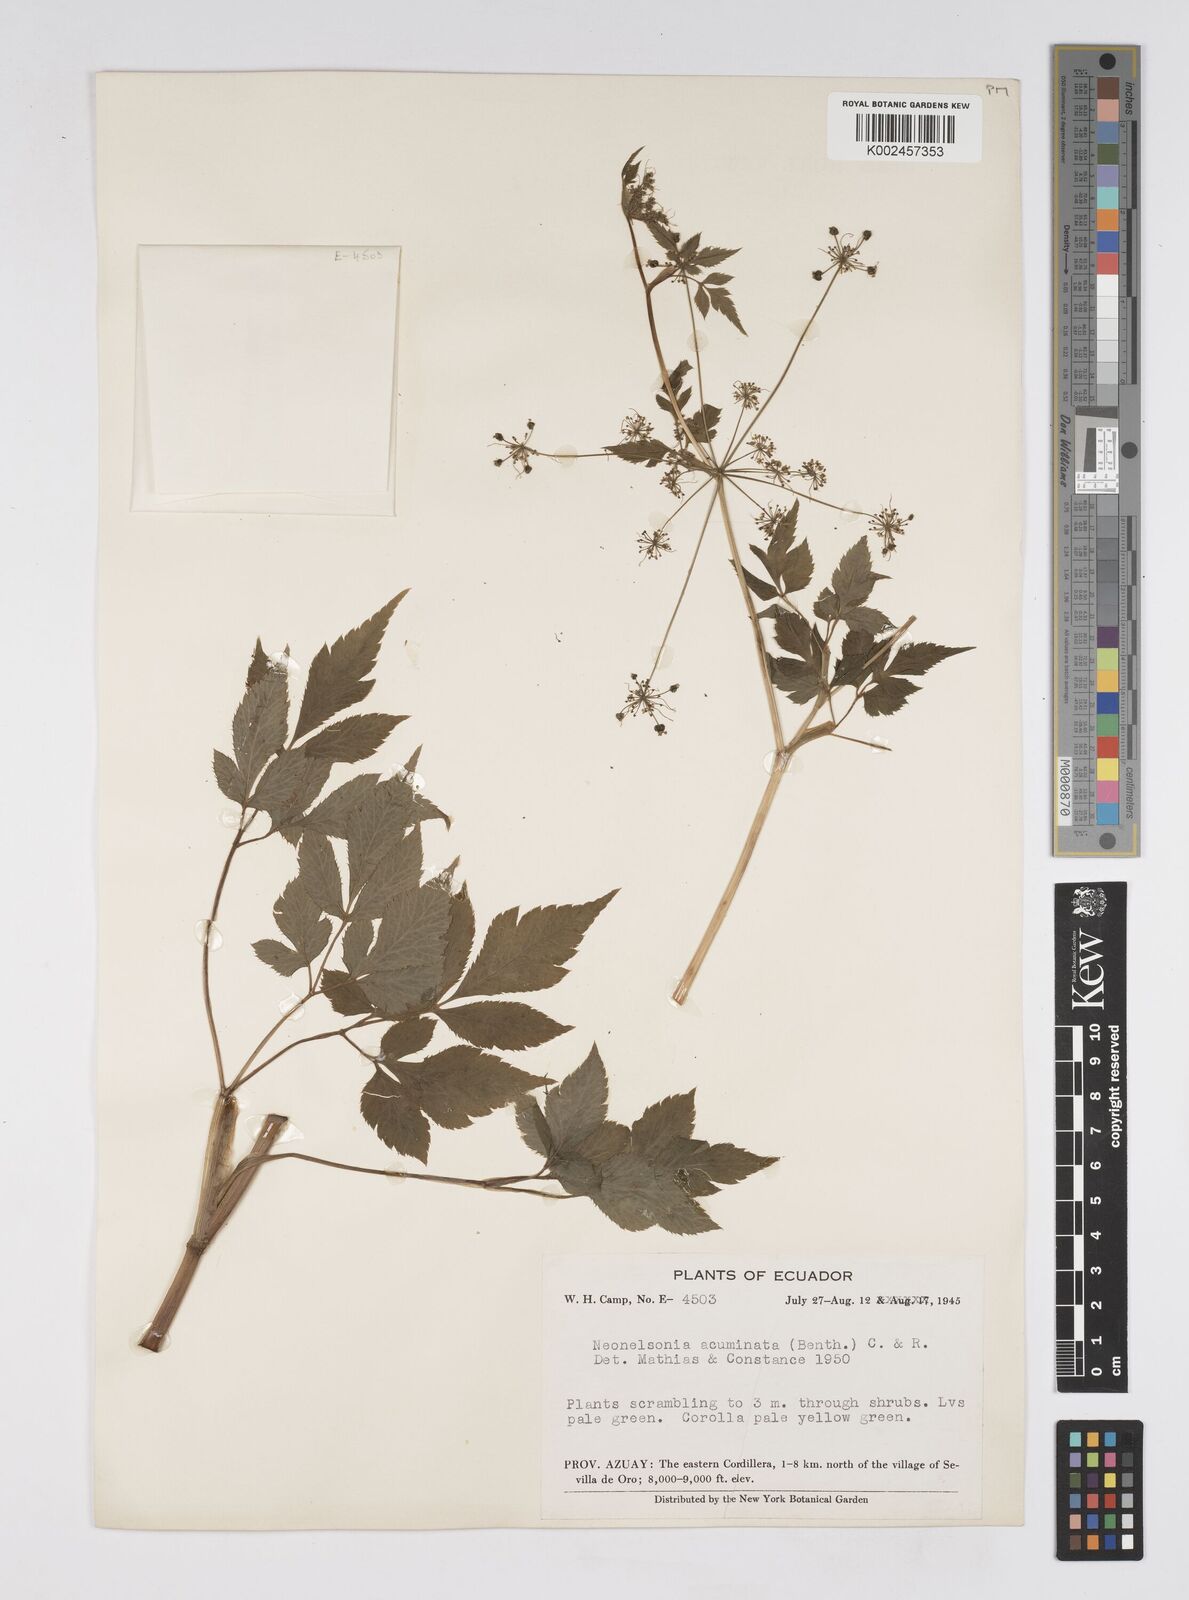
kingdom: Plantae
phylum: Tracheophyta
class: Magnoliopsida
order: Apiales
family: Apiaceae
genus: Neonelsonia
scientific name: Neonelsonia acuminata
